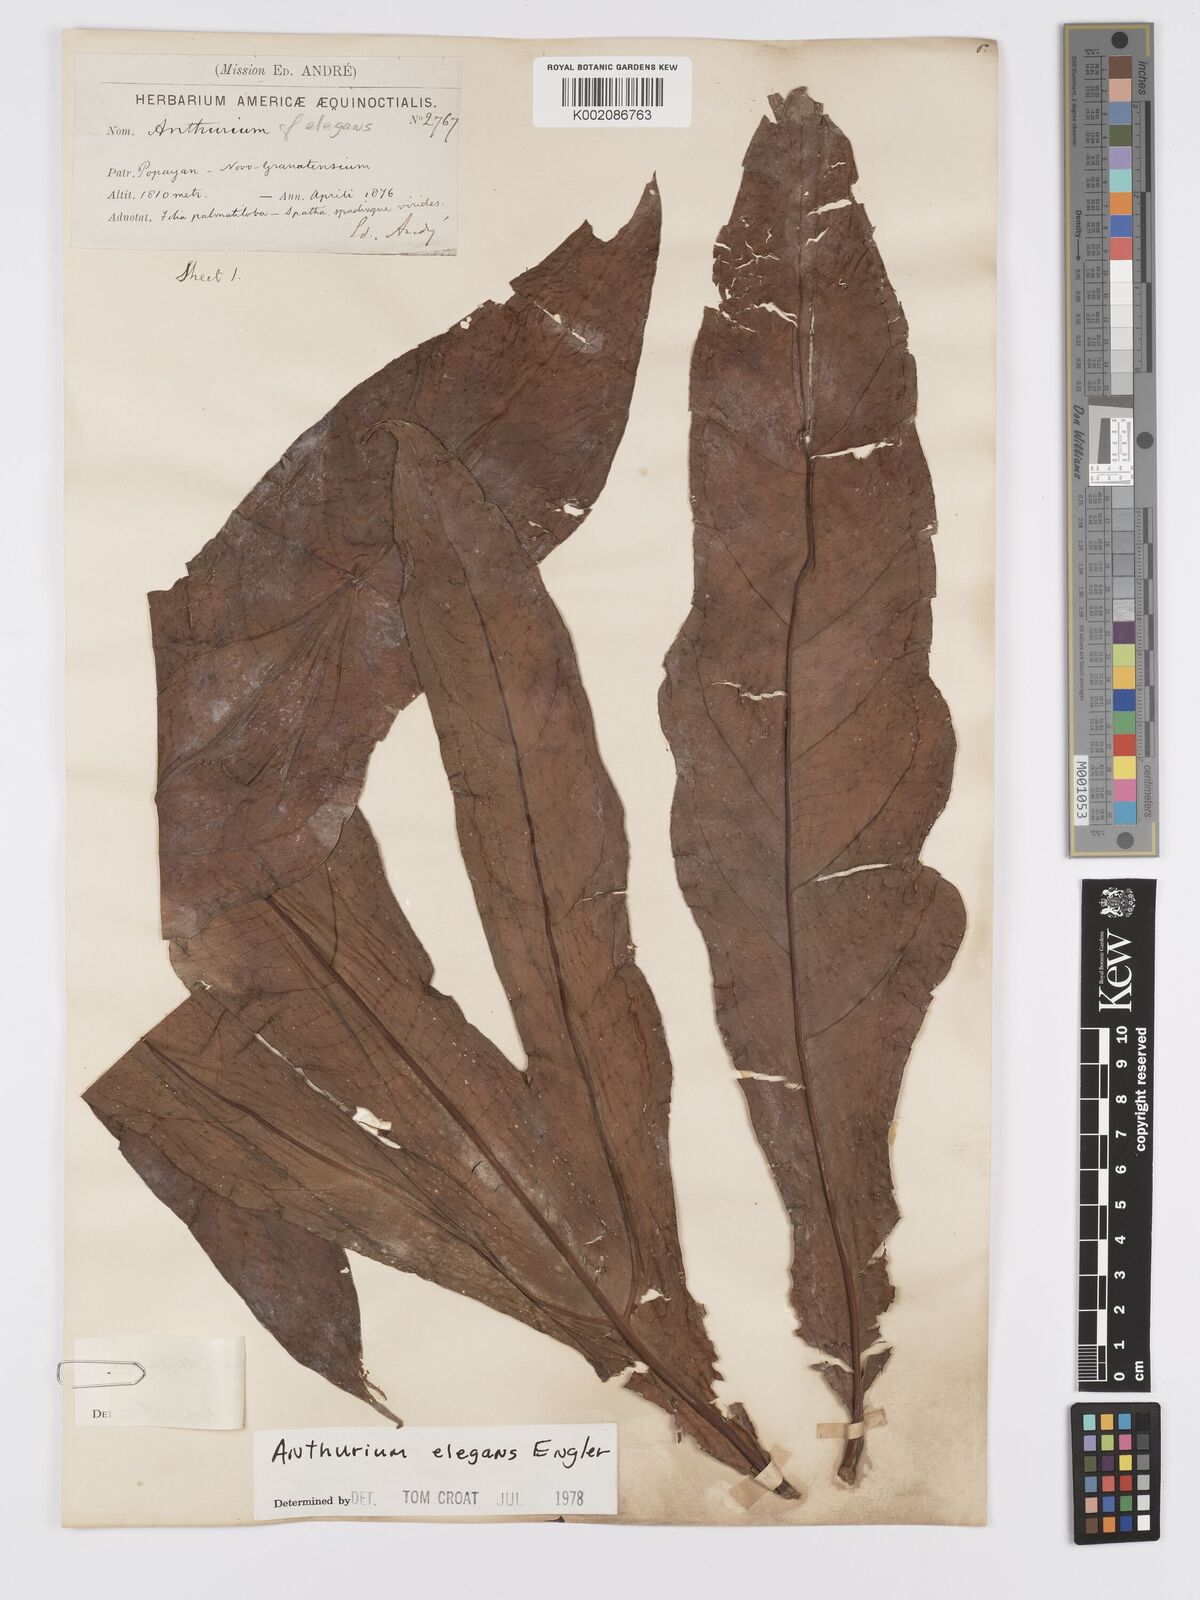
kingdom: Plantae
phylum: Tracheophyta
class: Liliopsida
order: Alismatales
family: Araceae
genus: Anthurium
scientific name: Anthurium pedatum
